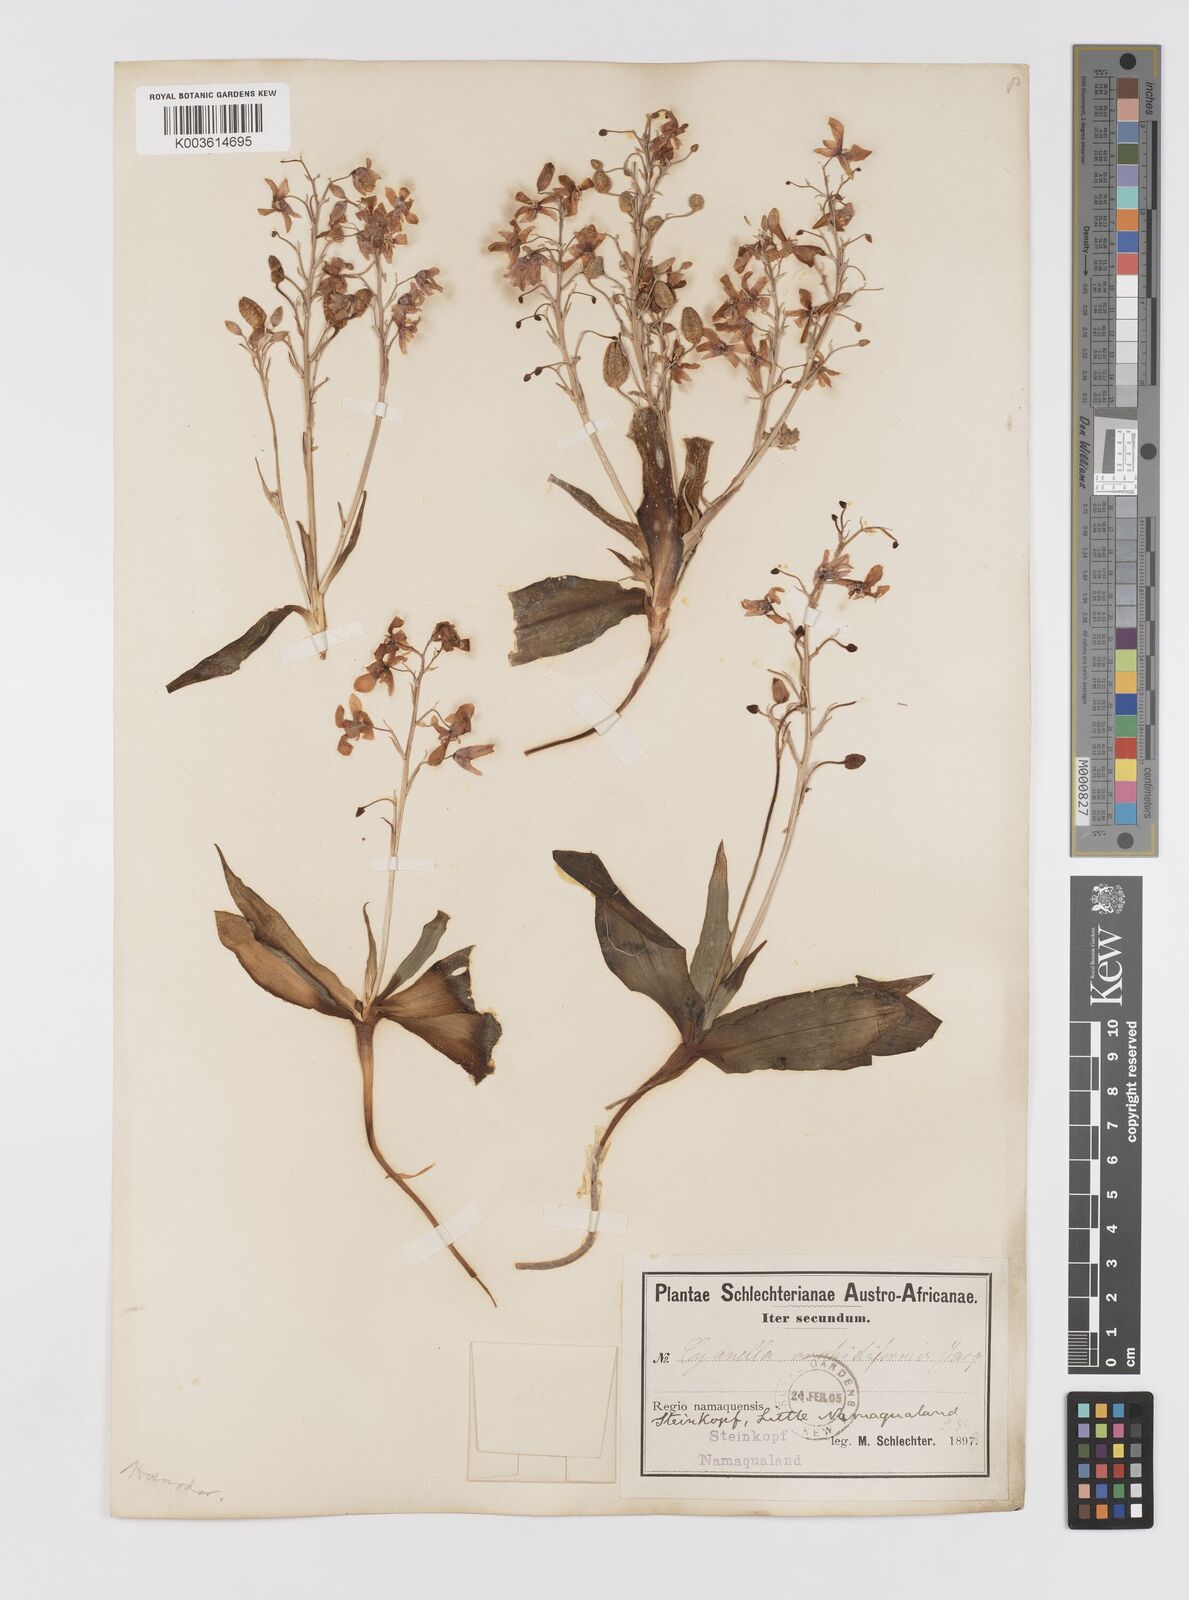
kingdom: Plantae
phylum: Tracheophyta
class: Liliopsida
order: Asparagales
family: Tecophilaeaceae
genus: Cyanella
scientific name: Cyanella orchidiformis
